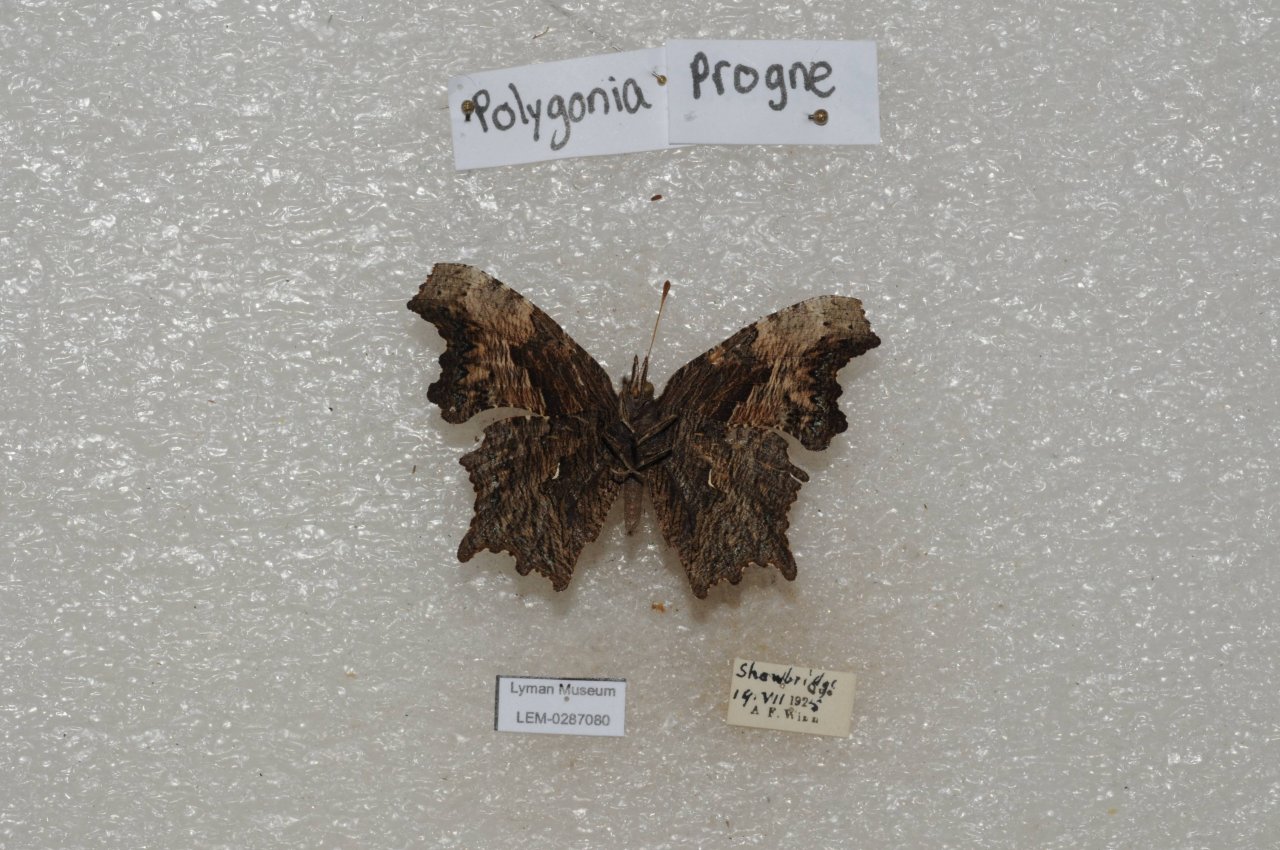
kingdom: Animalia
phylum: Arthropoda
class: Insecta
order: Lepidoptera
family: Nymphalidae
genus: Polygonia
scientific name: Polygonia progne
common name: Gray Comma
